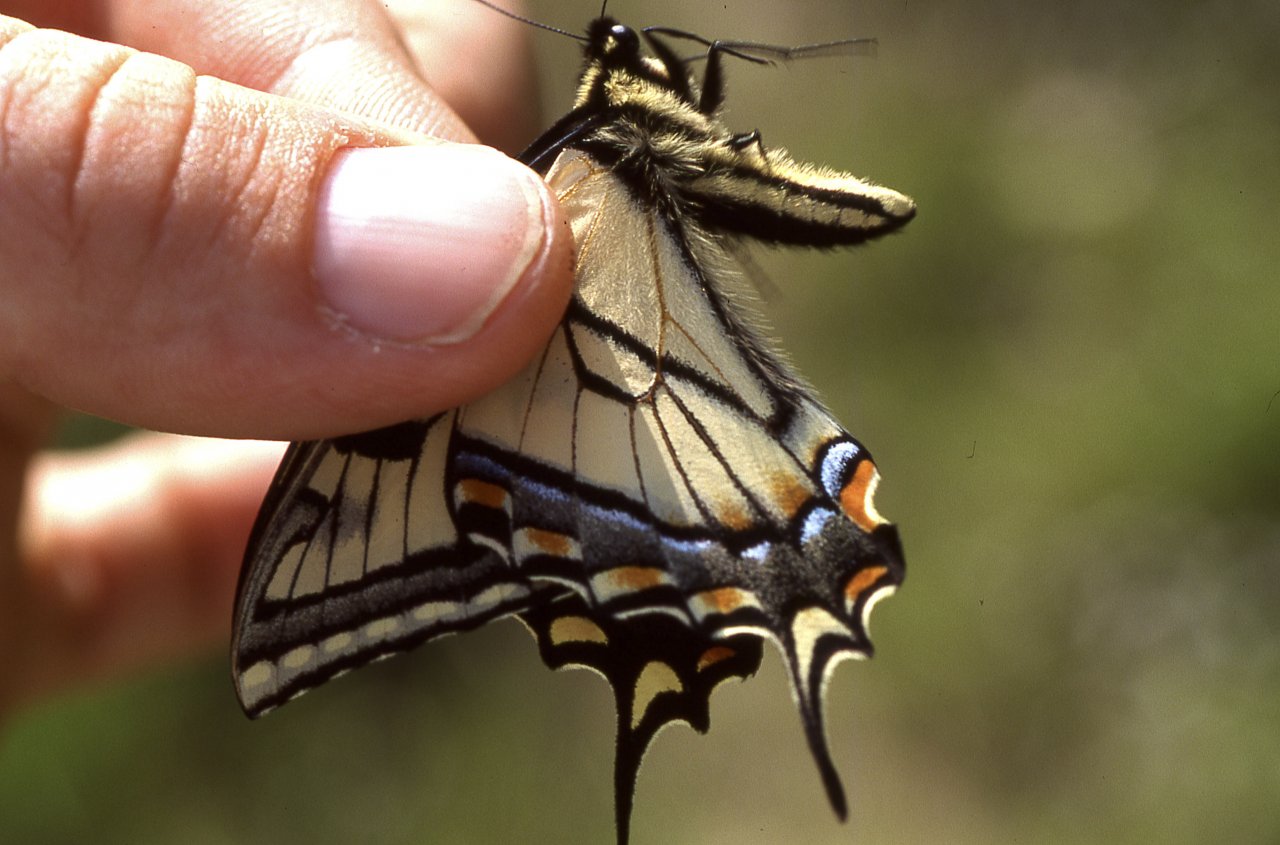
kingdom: Animalia
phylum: Arthropoda
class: Insecta
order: Lepidoptera
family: Papilionidae
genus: Pterourus
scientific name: Pterourus canadensis
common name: Canadian Tiger Swallowtail
